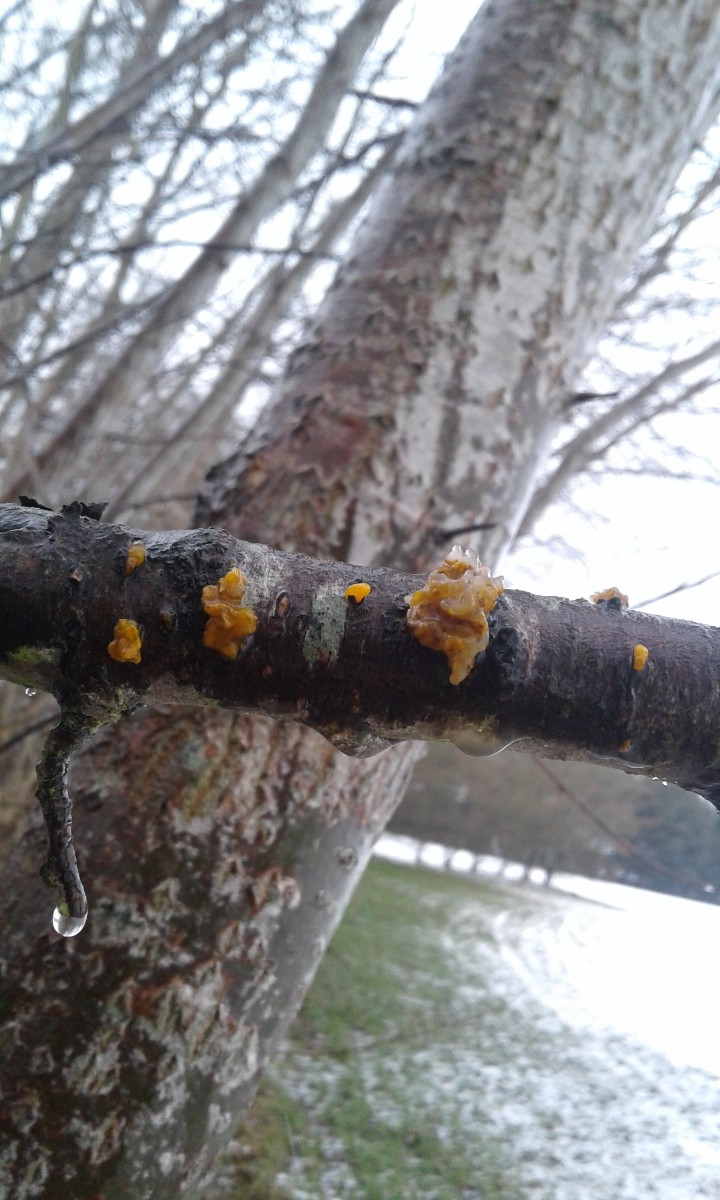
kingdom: Fungi
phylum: Basidiomycota
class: Tremellomycetes
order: Tremellales
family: Tremellaceae
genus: Tremella
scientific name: Tremella mesenterica
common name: gul bævresvamp
